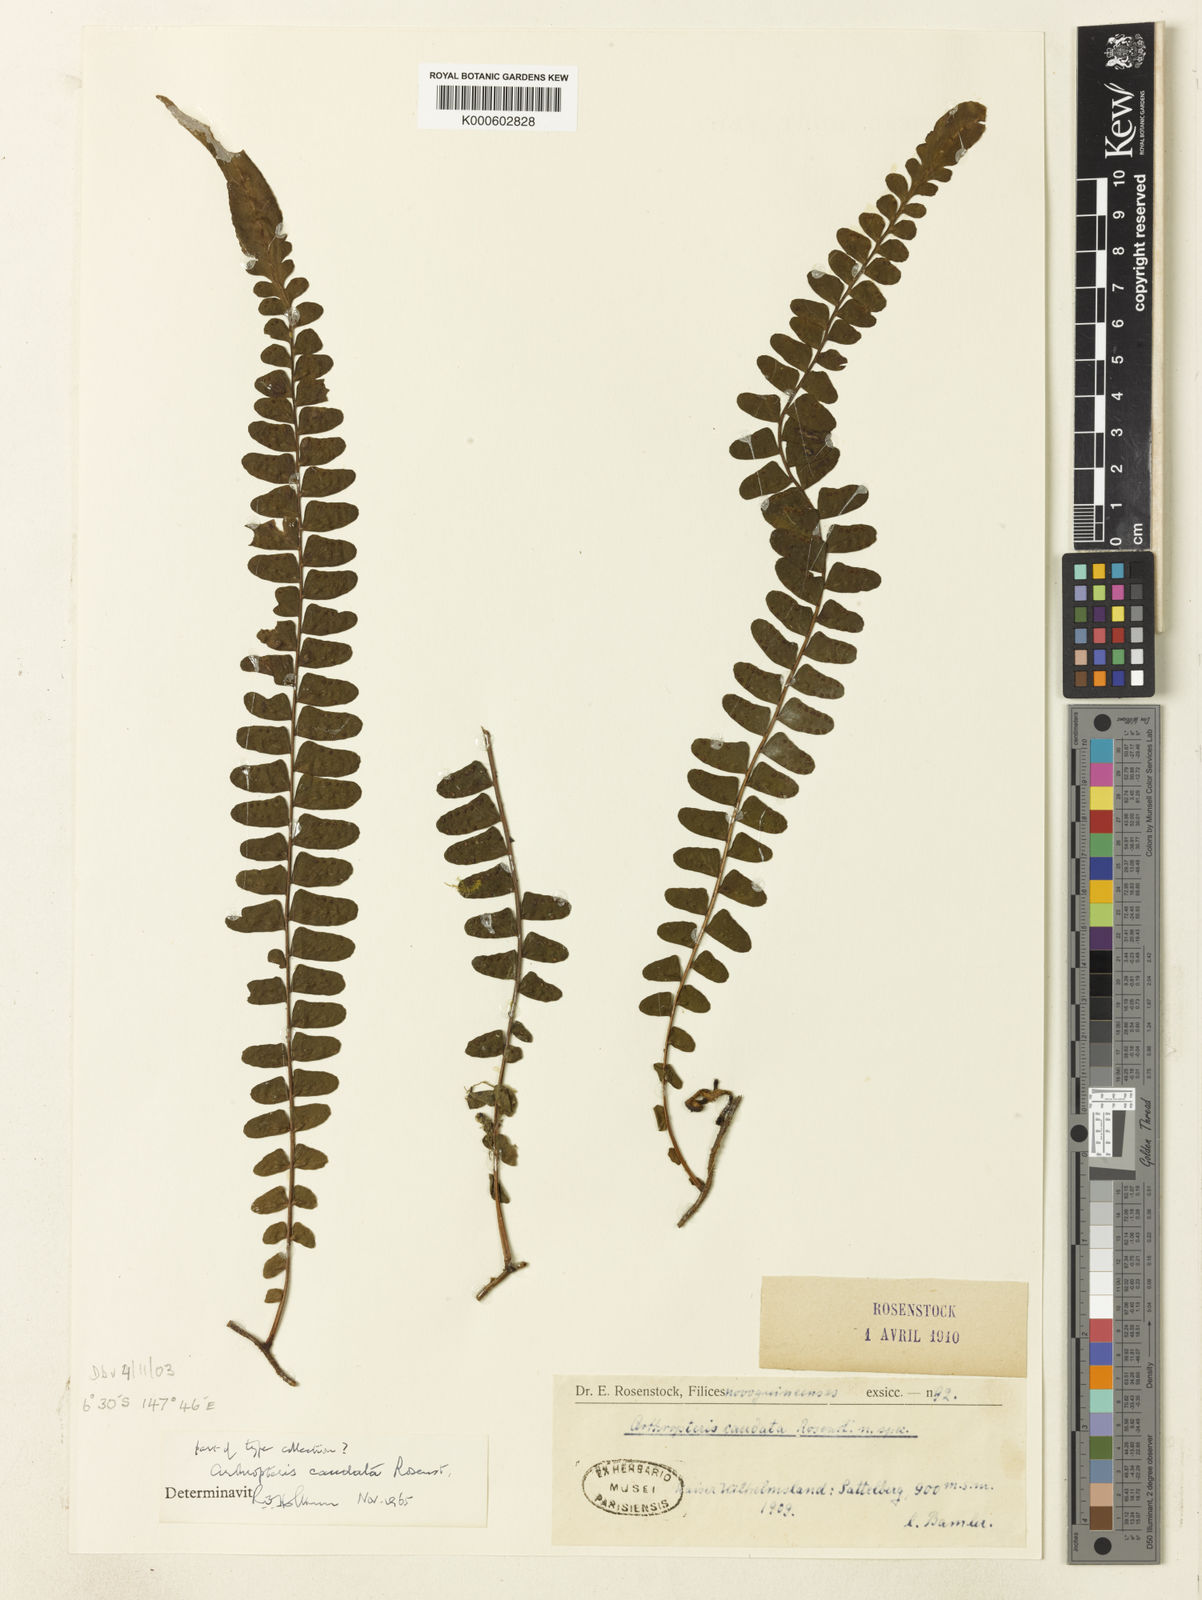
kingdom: Plantae
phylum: Tracheophyta
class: Polypodiopsida
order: Polypodiales
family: Tectariaceae
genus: Arthropteris
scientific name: Arthropteris palisotii
